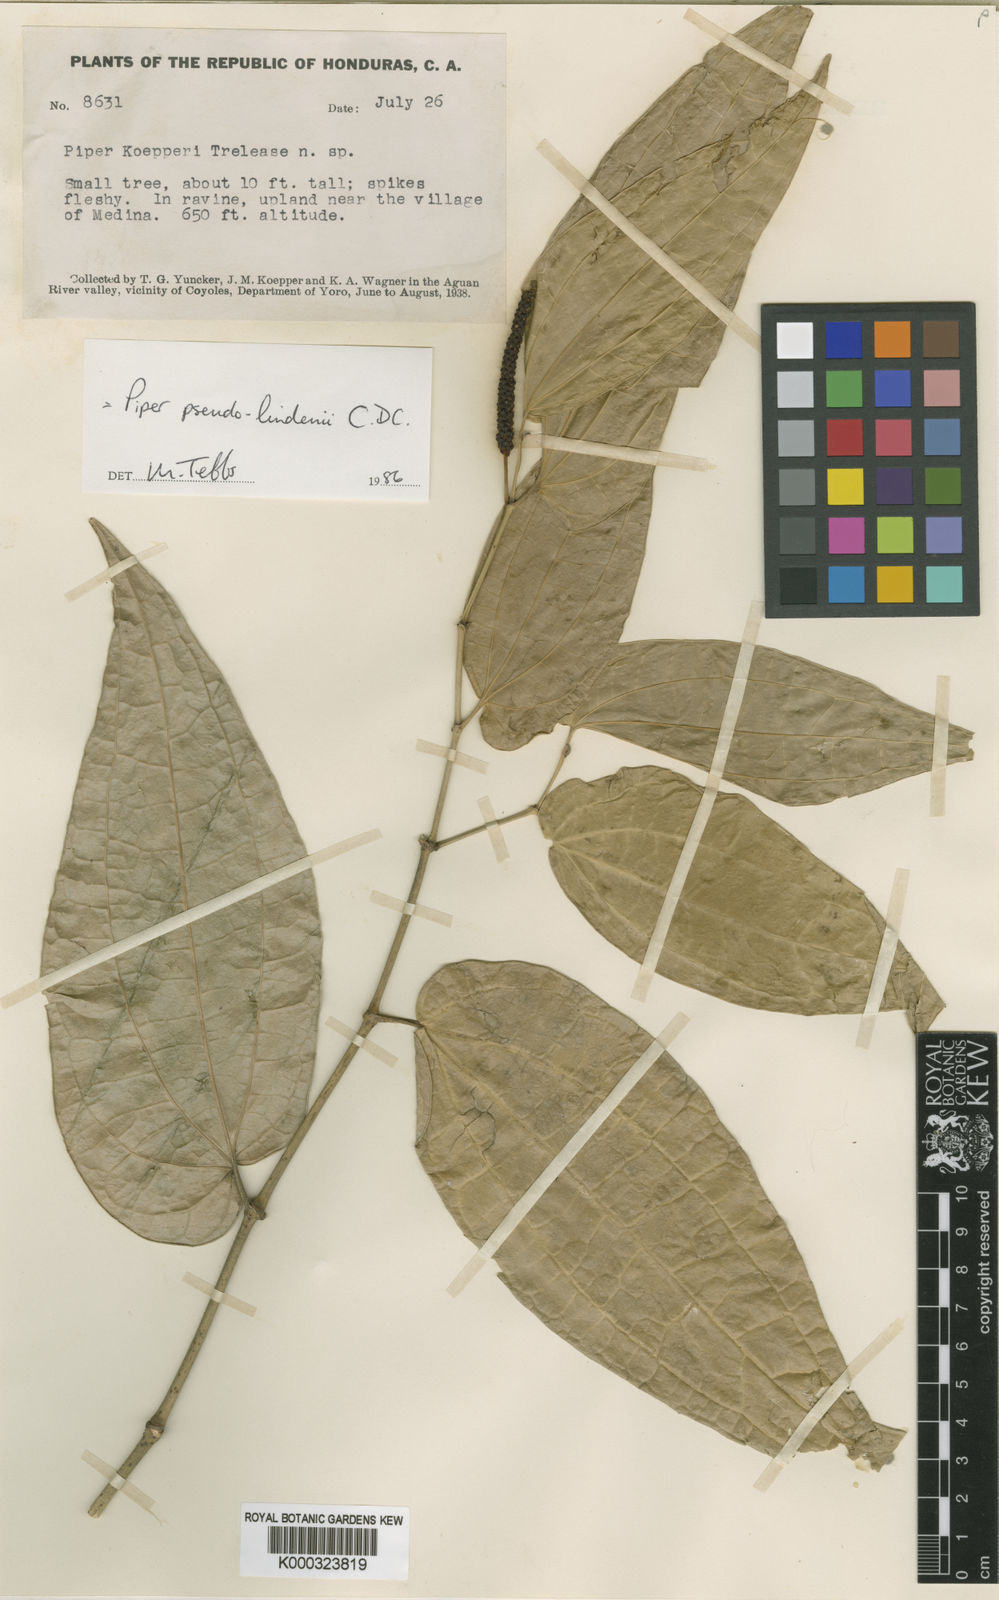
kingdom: Plantae
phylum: Tracheophyta
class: Magnoliopsida
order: Piperales
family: Piperaceae
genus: Piper
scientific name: Piper uhdei
